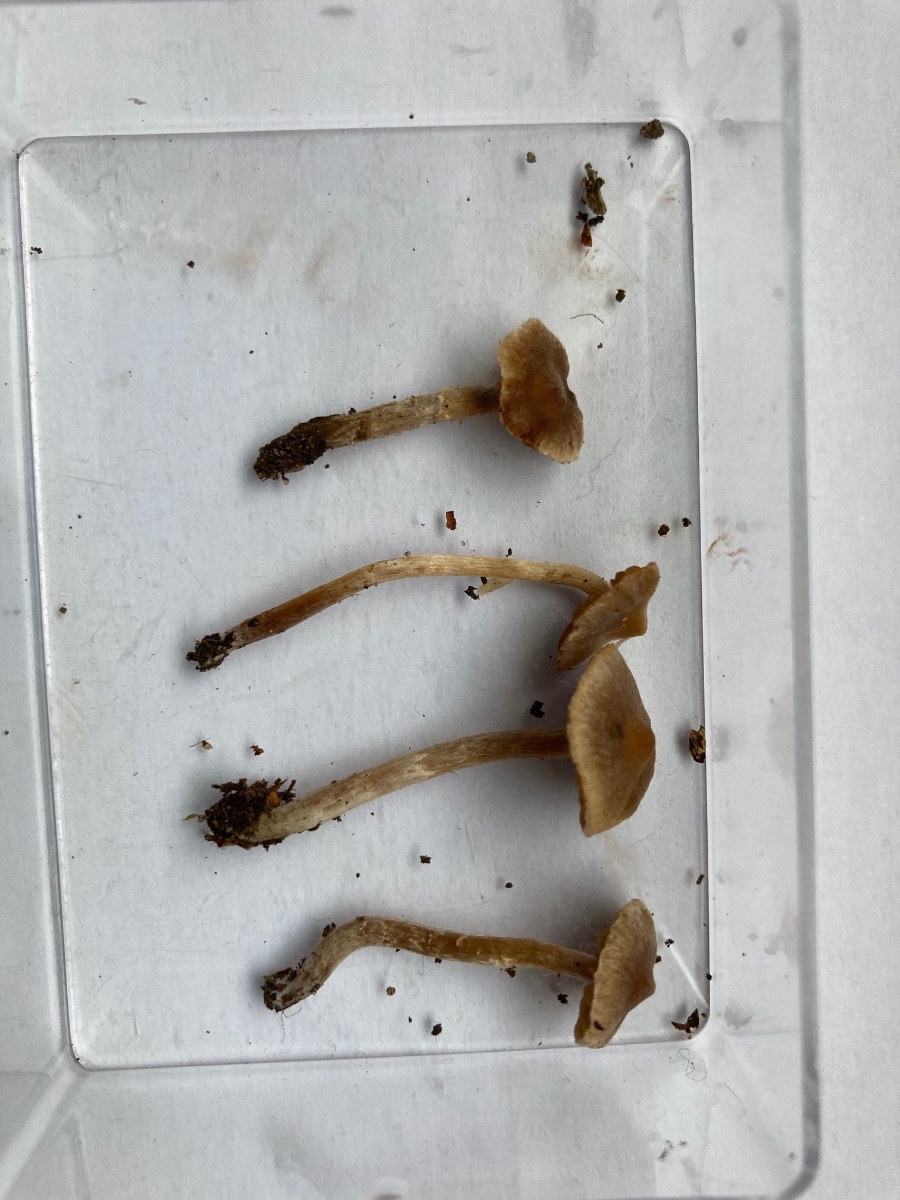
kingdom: Fungi
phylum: Basidiomycota
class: Agaricomycetes
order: Agaricales
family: Cortinariaceae
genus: Cortinarius
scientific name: Cortinarius pilatii
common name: Piláts slørhat
